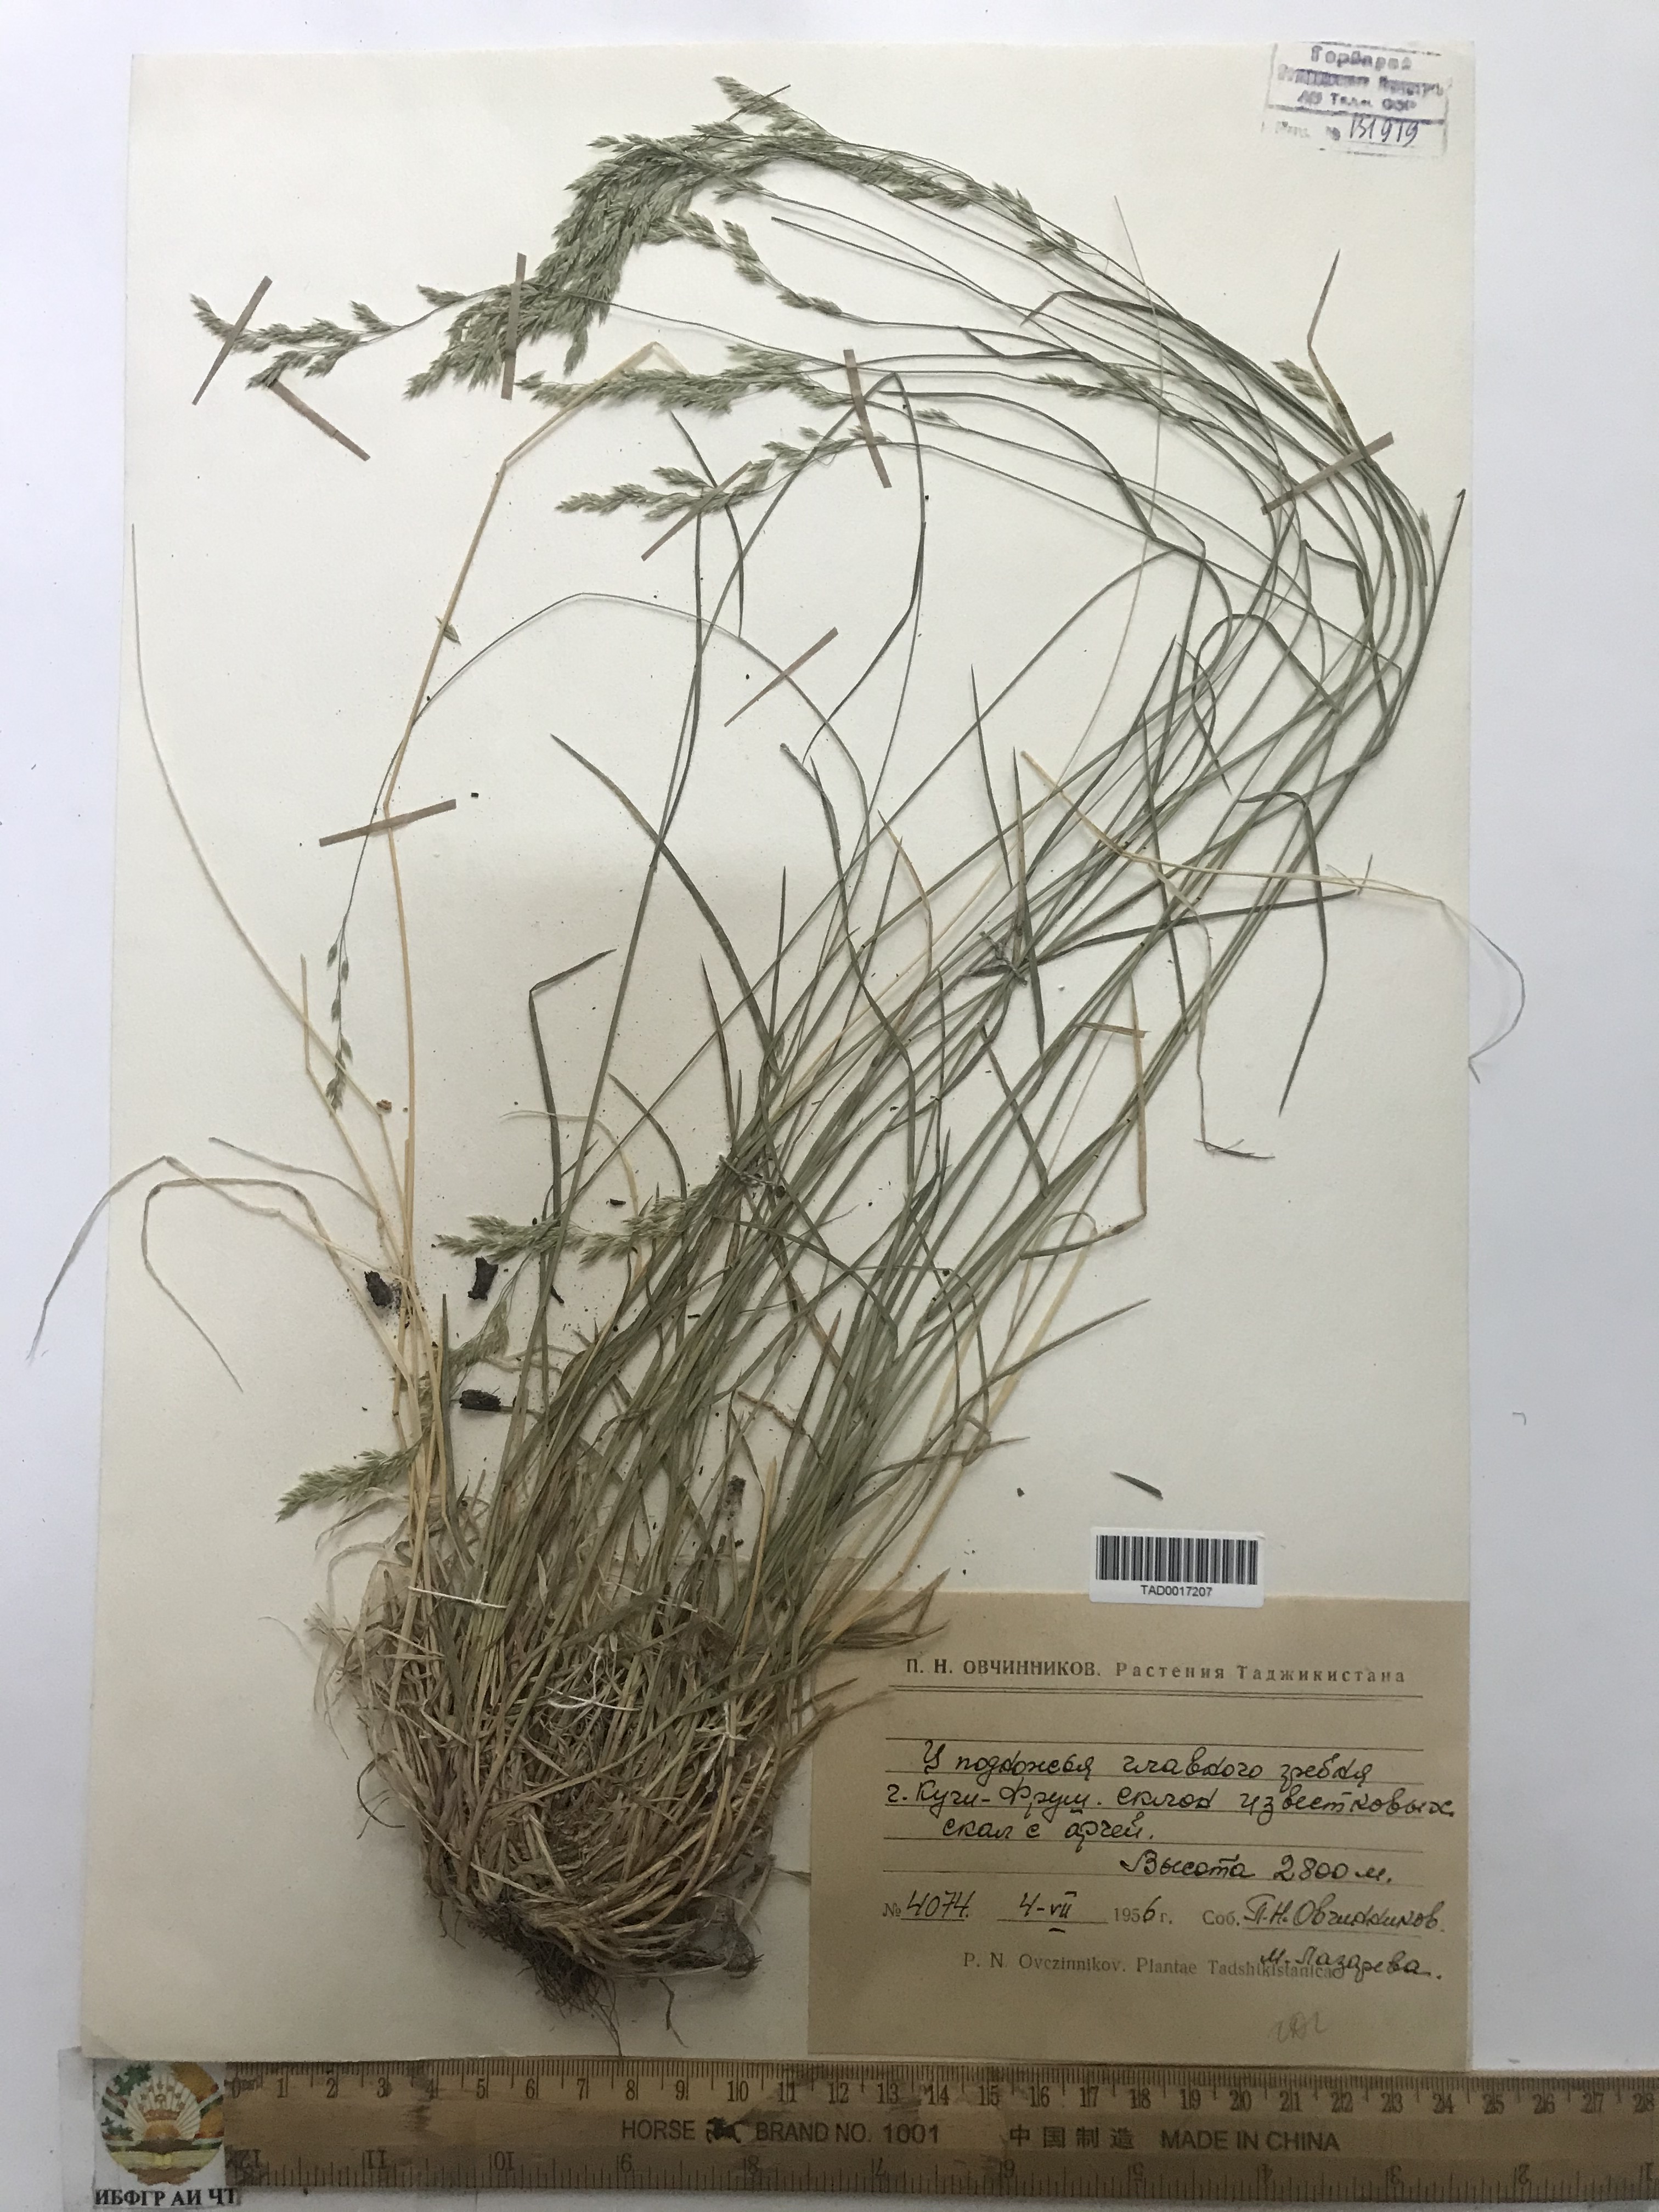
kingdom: Plantae
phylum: Tracheophyta
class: Liliopsida
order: Poales
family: Poaceae
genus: Poa
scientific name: Poa urssulensis
